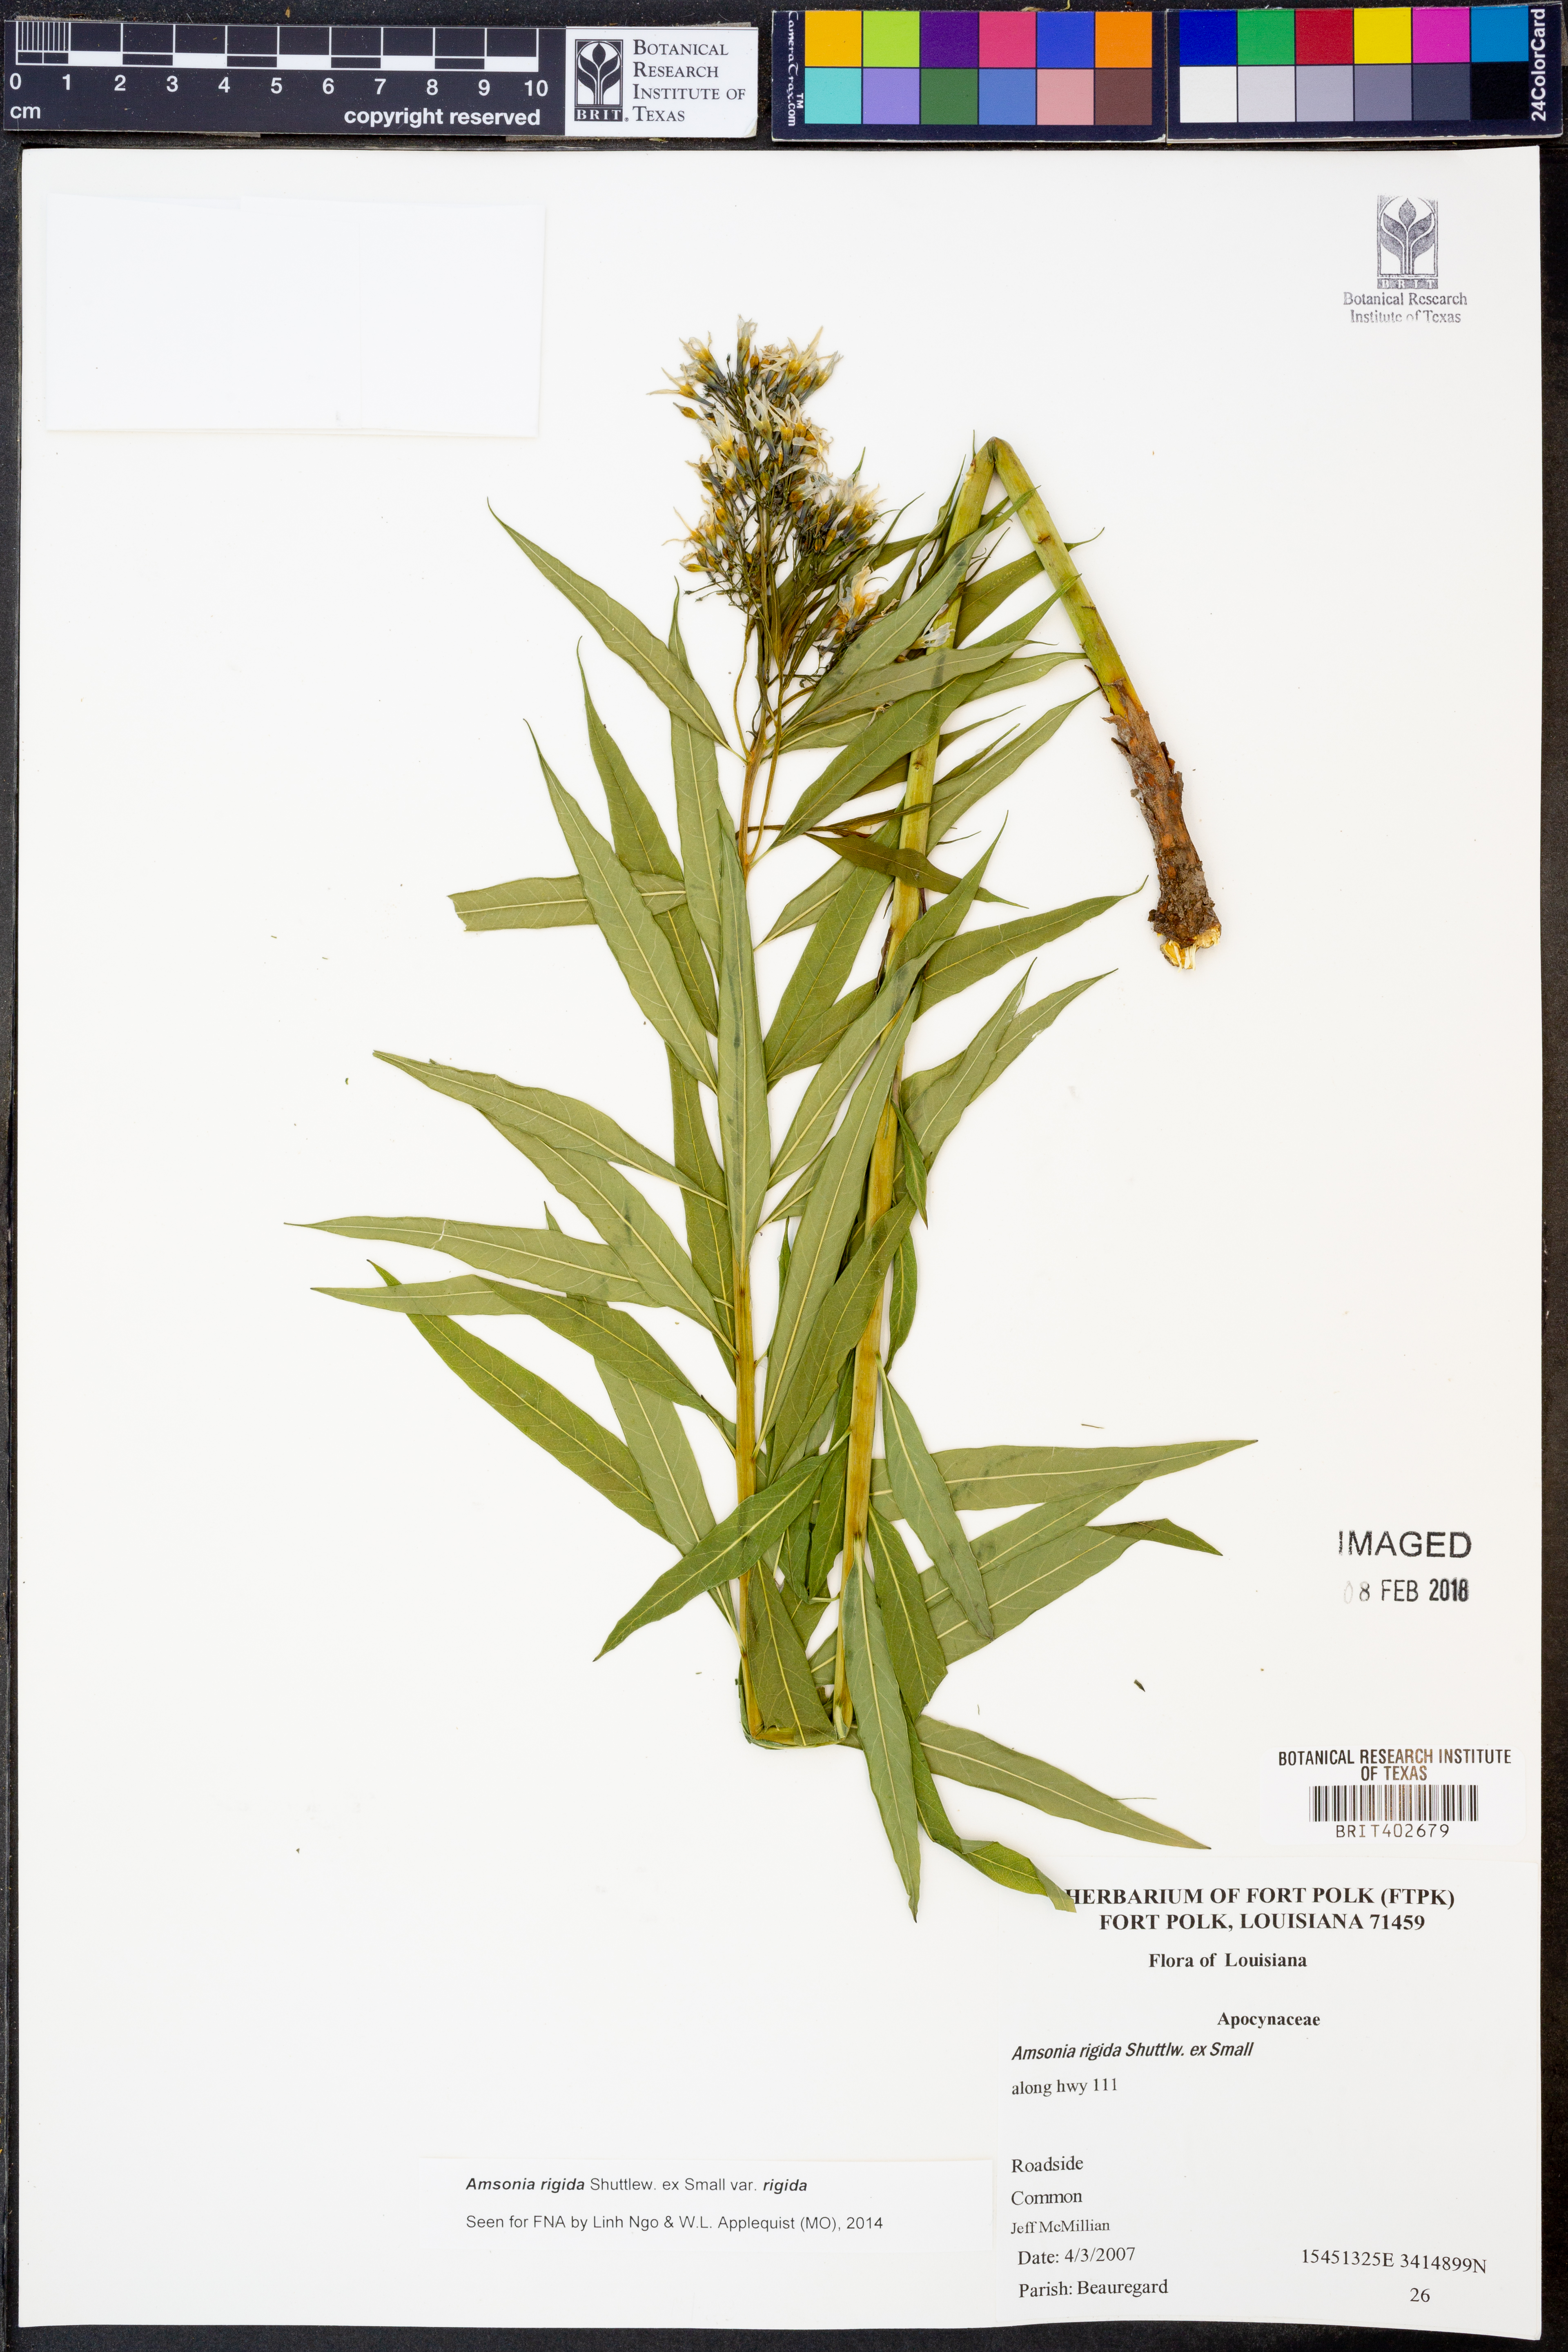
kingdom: Plantae
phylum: Tracheophyta
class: Magnoliopsida
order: Gentianales
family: Apocynaceae
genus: Amsonia
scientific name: Amsonia rigida
